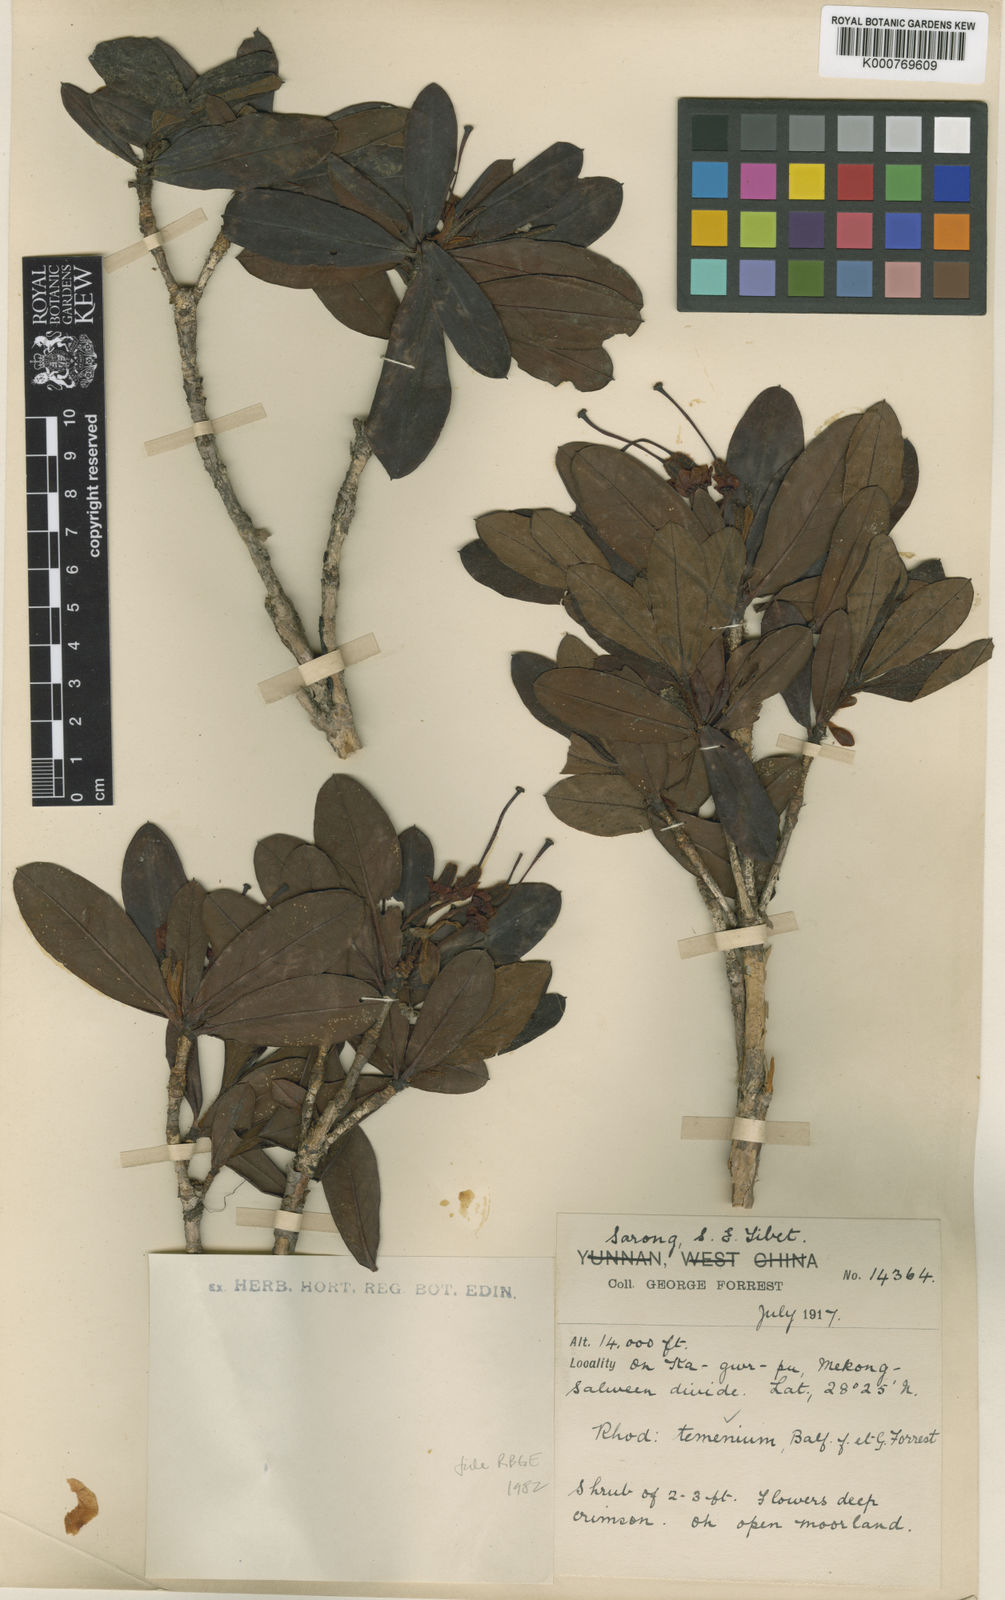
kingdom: Plantae
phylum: Tracheophyta
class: Magnoliopsida
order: Ericales
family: Ericaceae
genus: Rhododendron
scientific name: Rhododendron temenium
